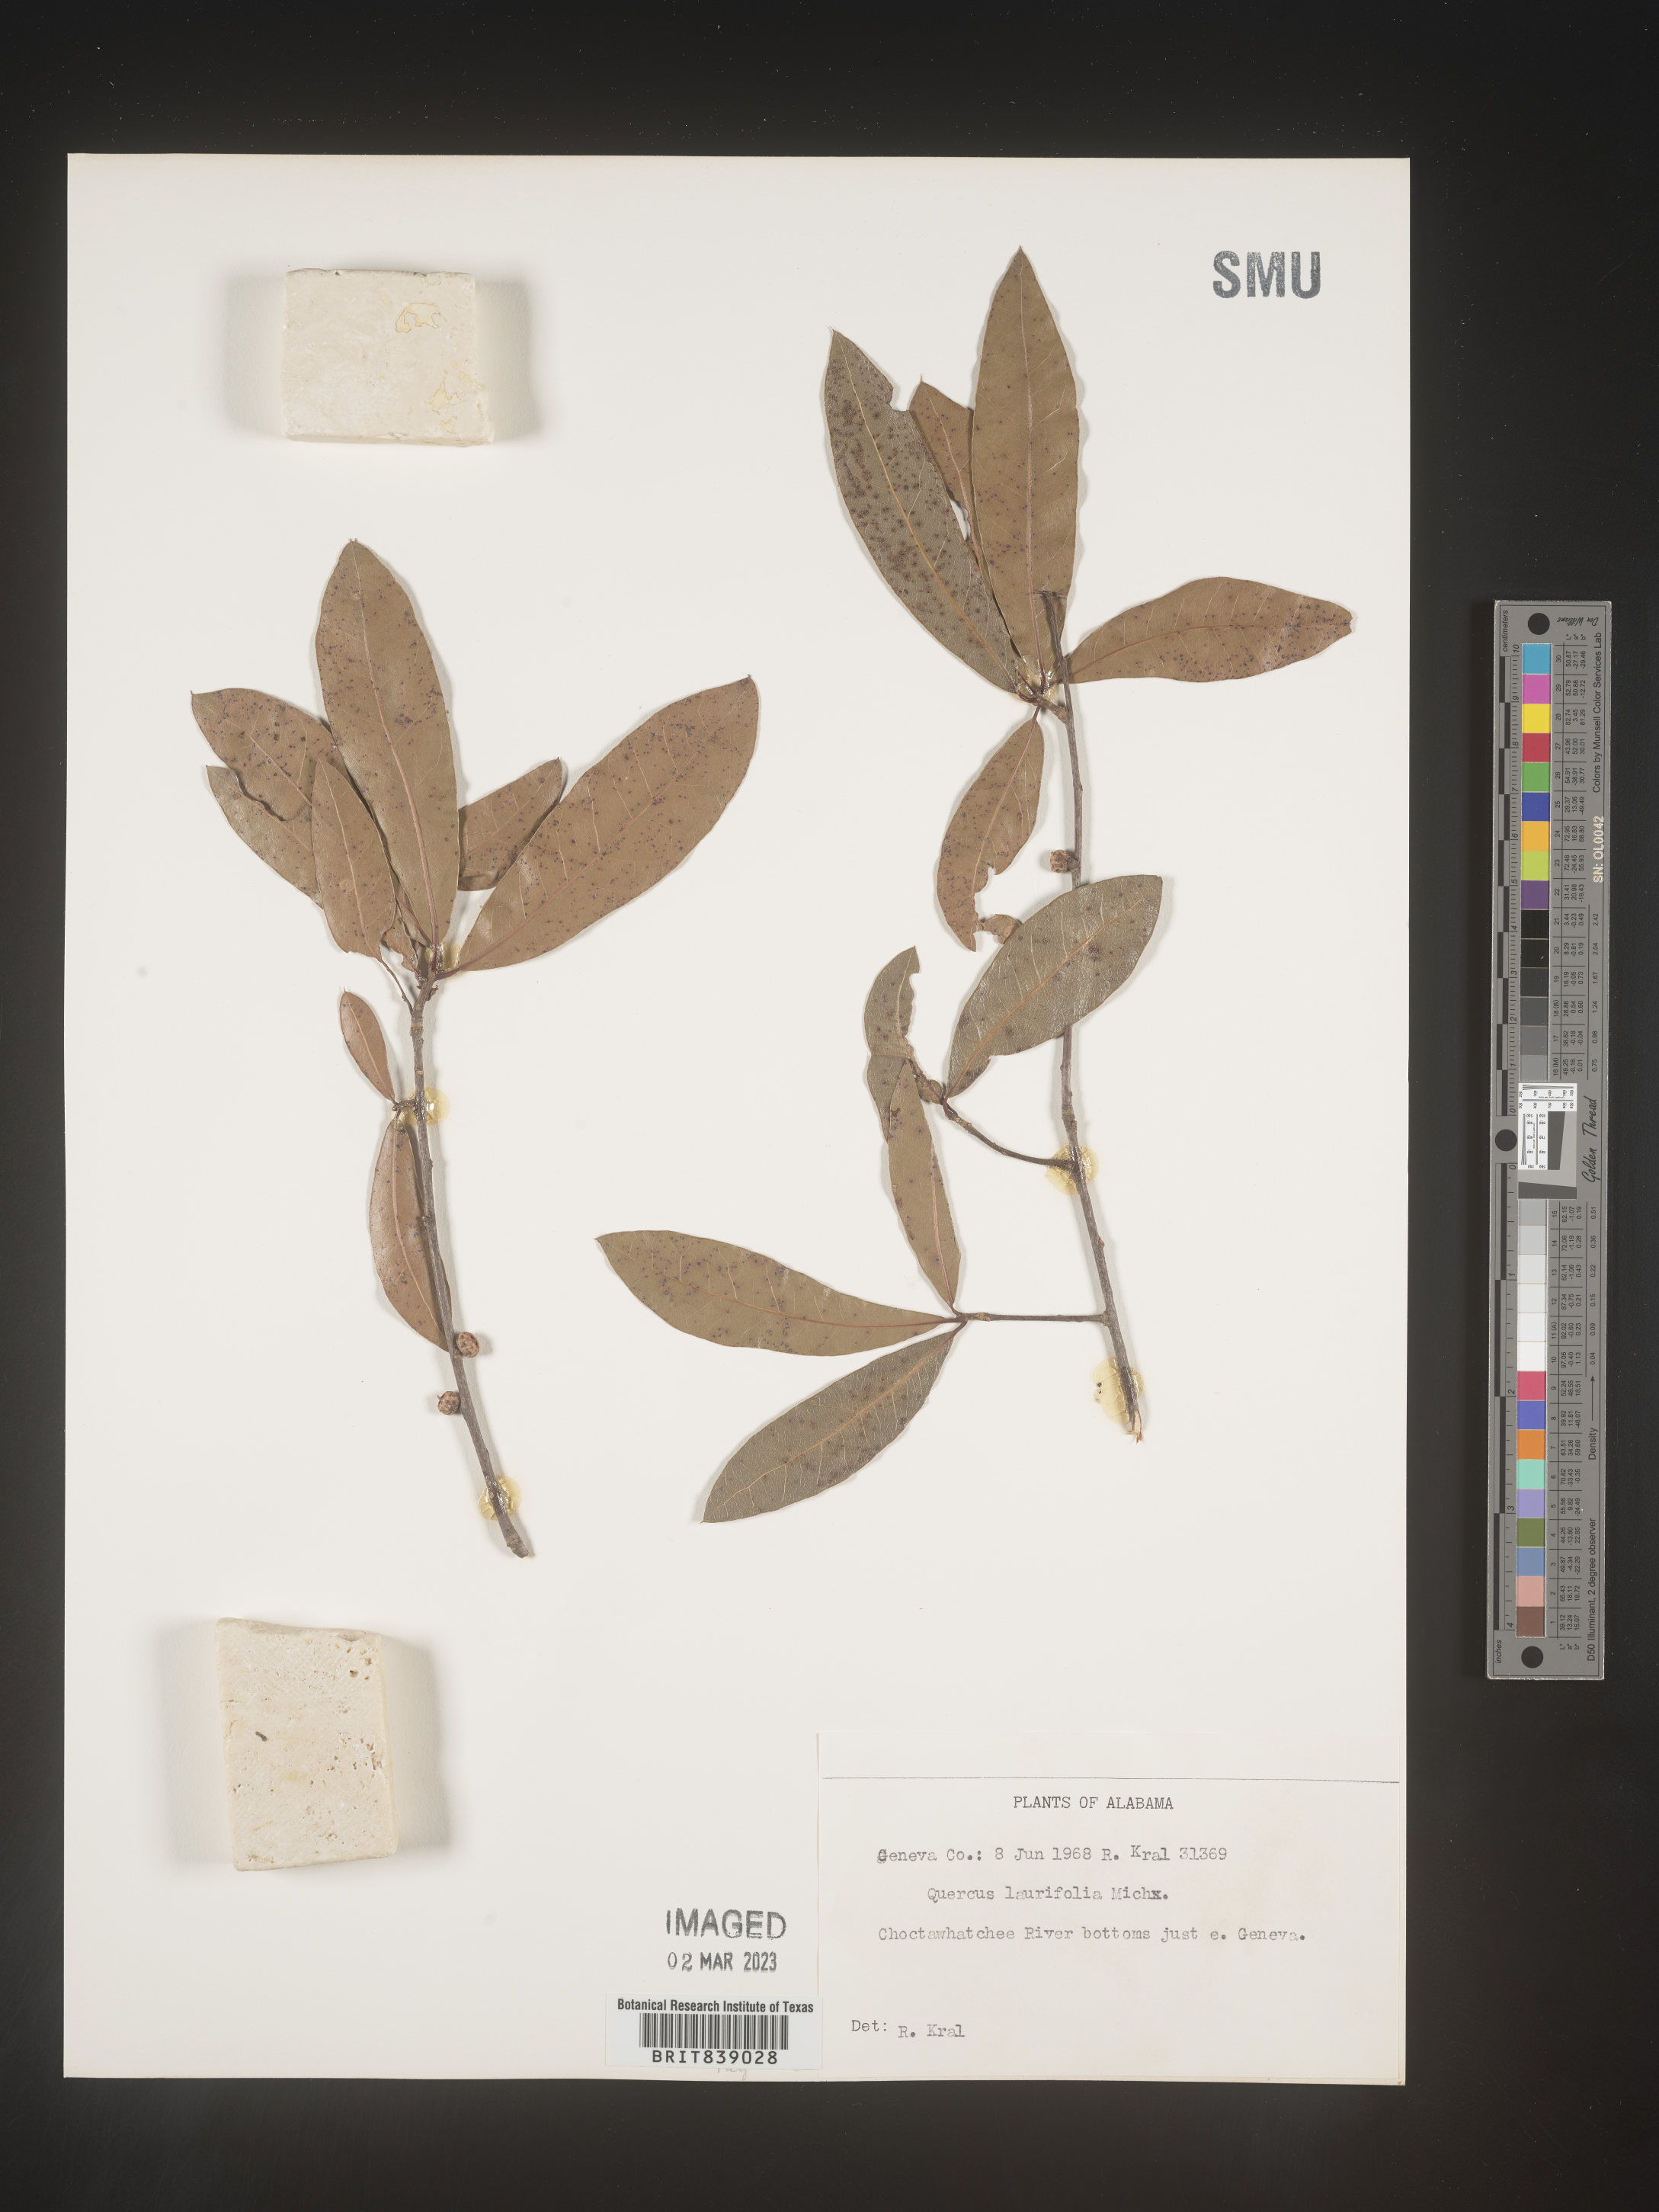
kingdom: Plantae
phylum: Tracheophyta
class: Magnoliopsida
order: Fagales
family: Fagaceae
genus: Quercus
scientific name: Quercus laurifolia
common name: Swamp laurel oak
